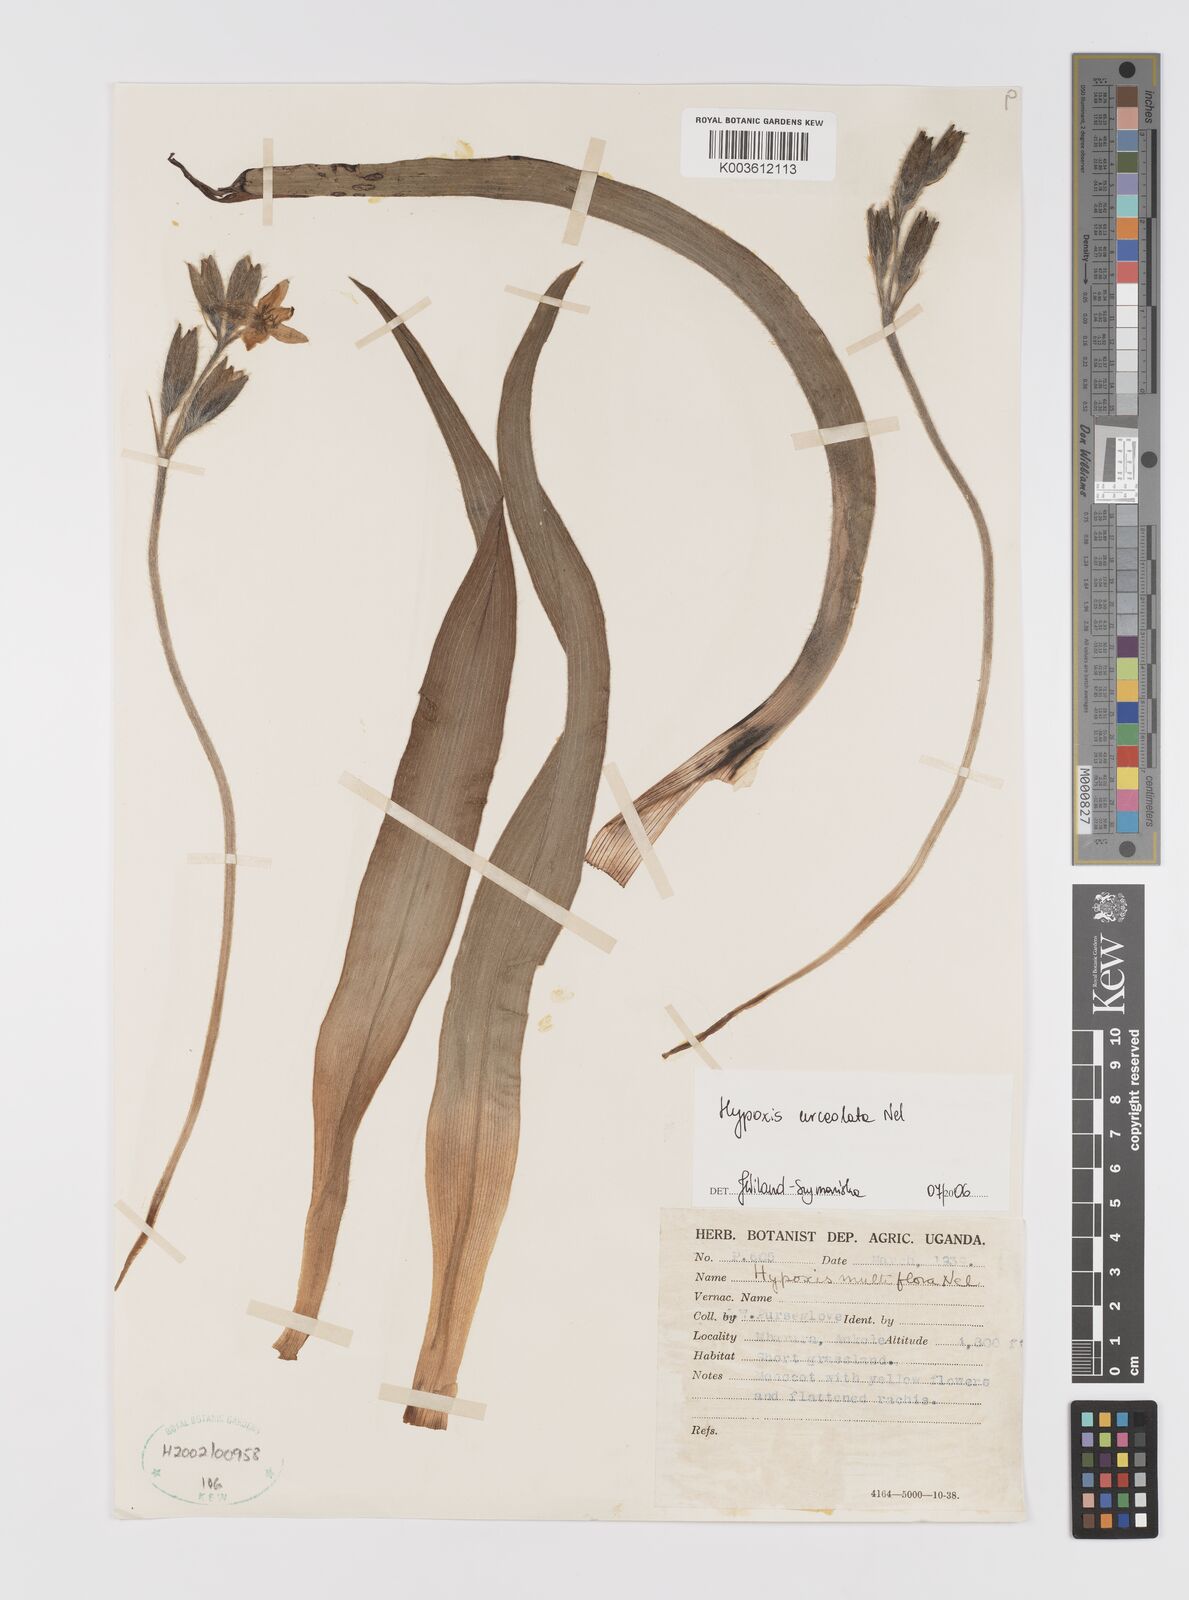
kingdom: Plantae
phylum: Tracheophyta
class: Liliopsida
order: Asparagales
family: Hypoxidaceae
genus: Hypoxis
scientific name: Hypoxis urceolata
